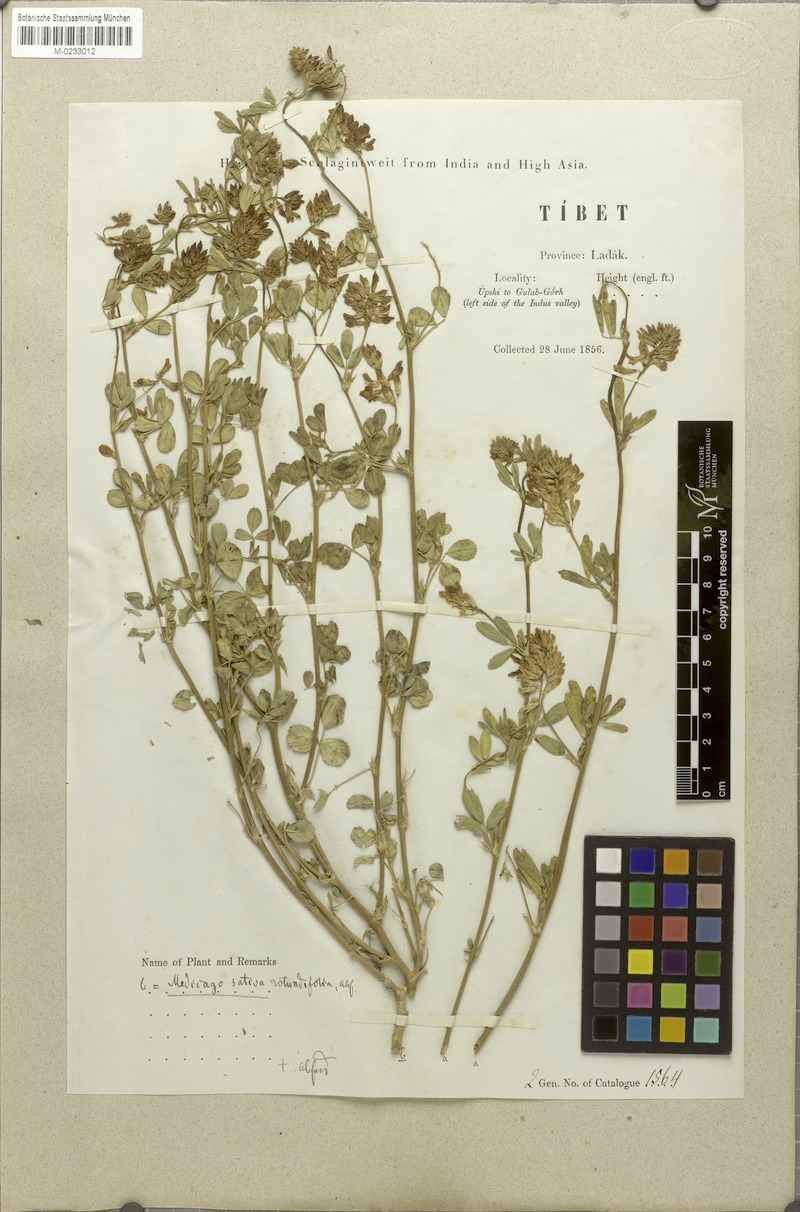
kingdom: Plantae
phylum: Tracheophyta
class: Magnoliopsida
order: Fabales
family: Fabaceae
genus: Medicago
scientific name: Medicago sativa
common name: Alfalfa
